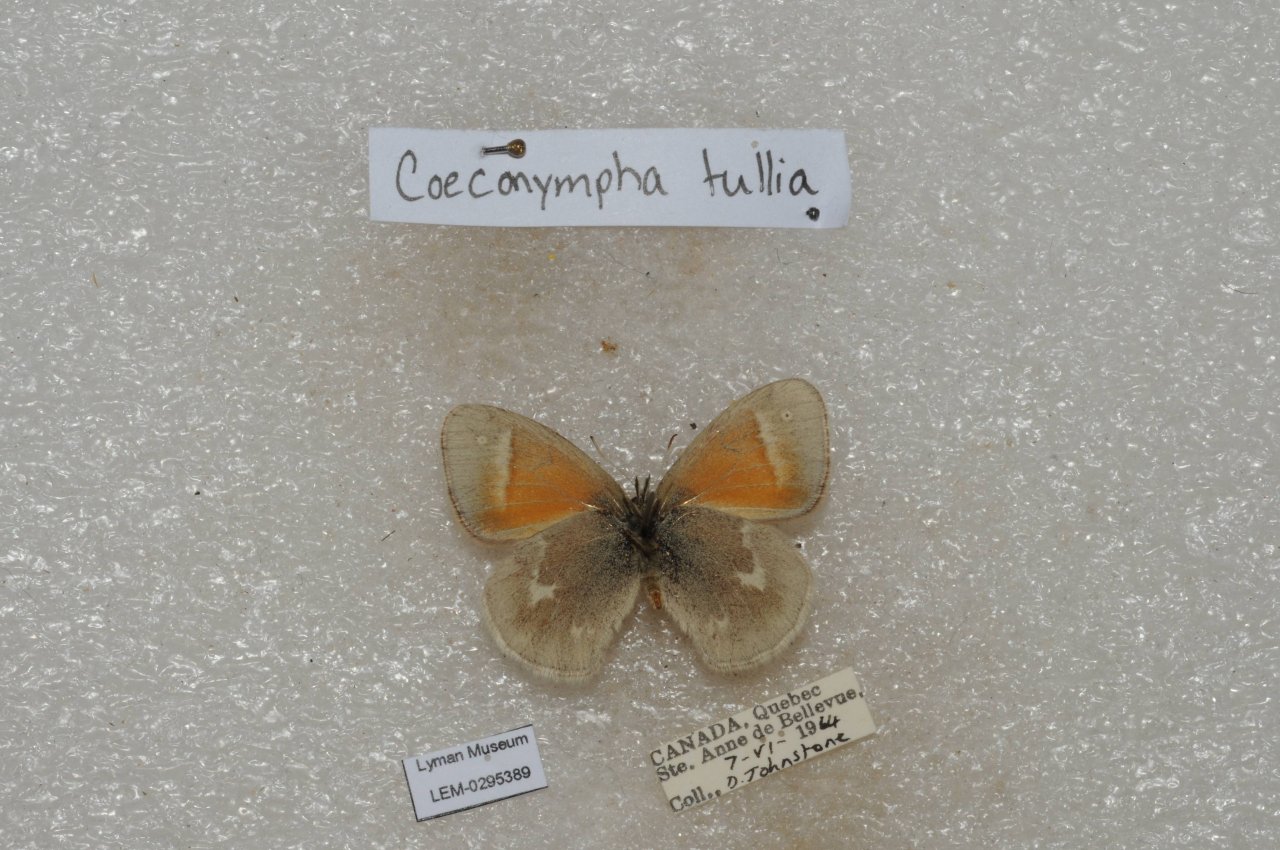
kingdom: Animalia
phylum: Arthropoda
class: Insecta
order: Lepidoptera
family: Nymphalidae
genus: Coenonympha
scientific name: Coenonympha tullia
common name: Large Heath
